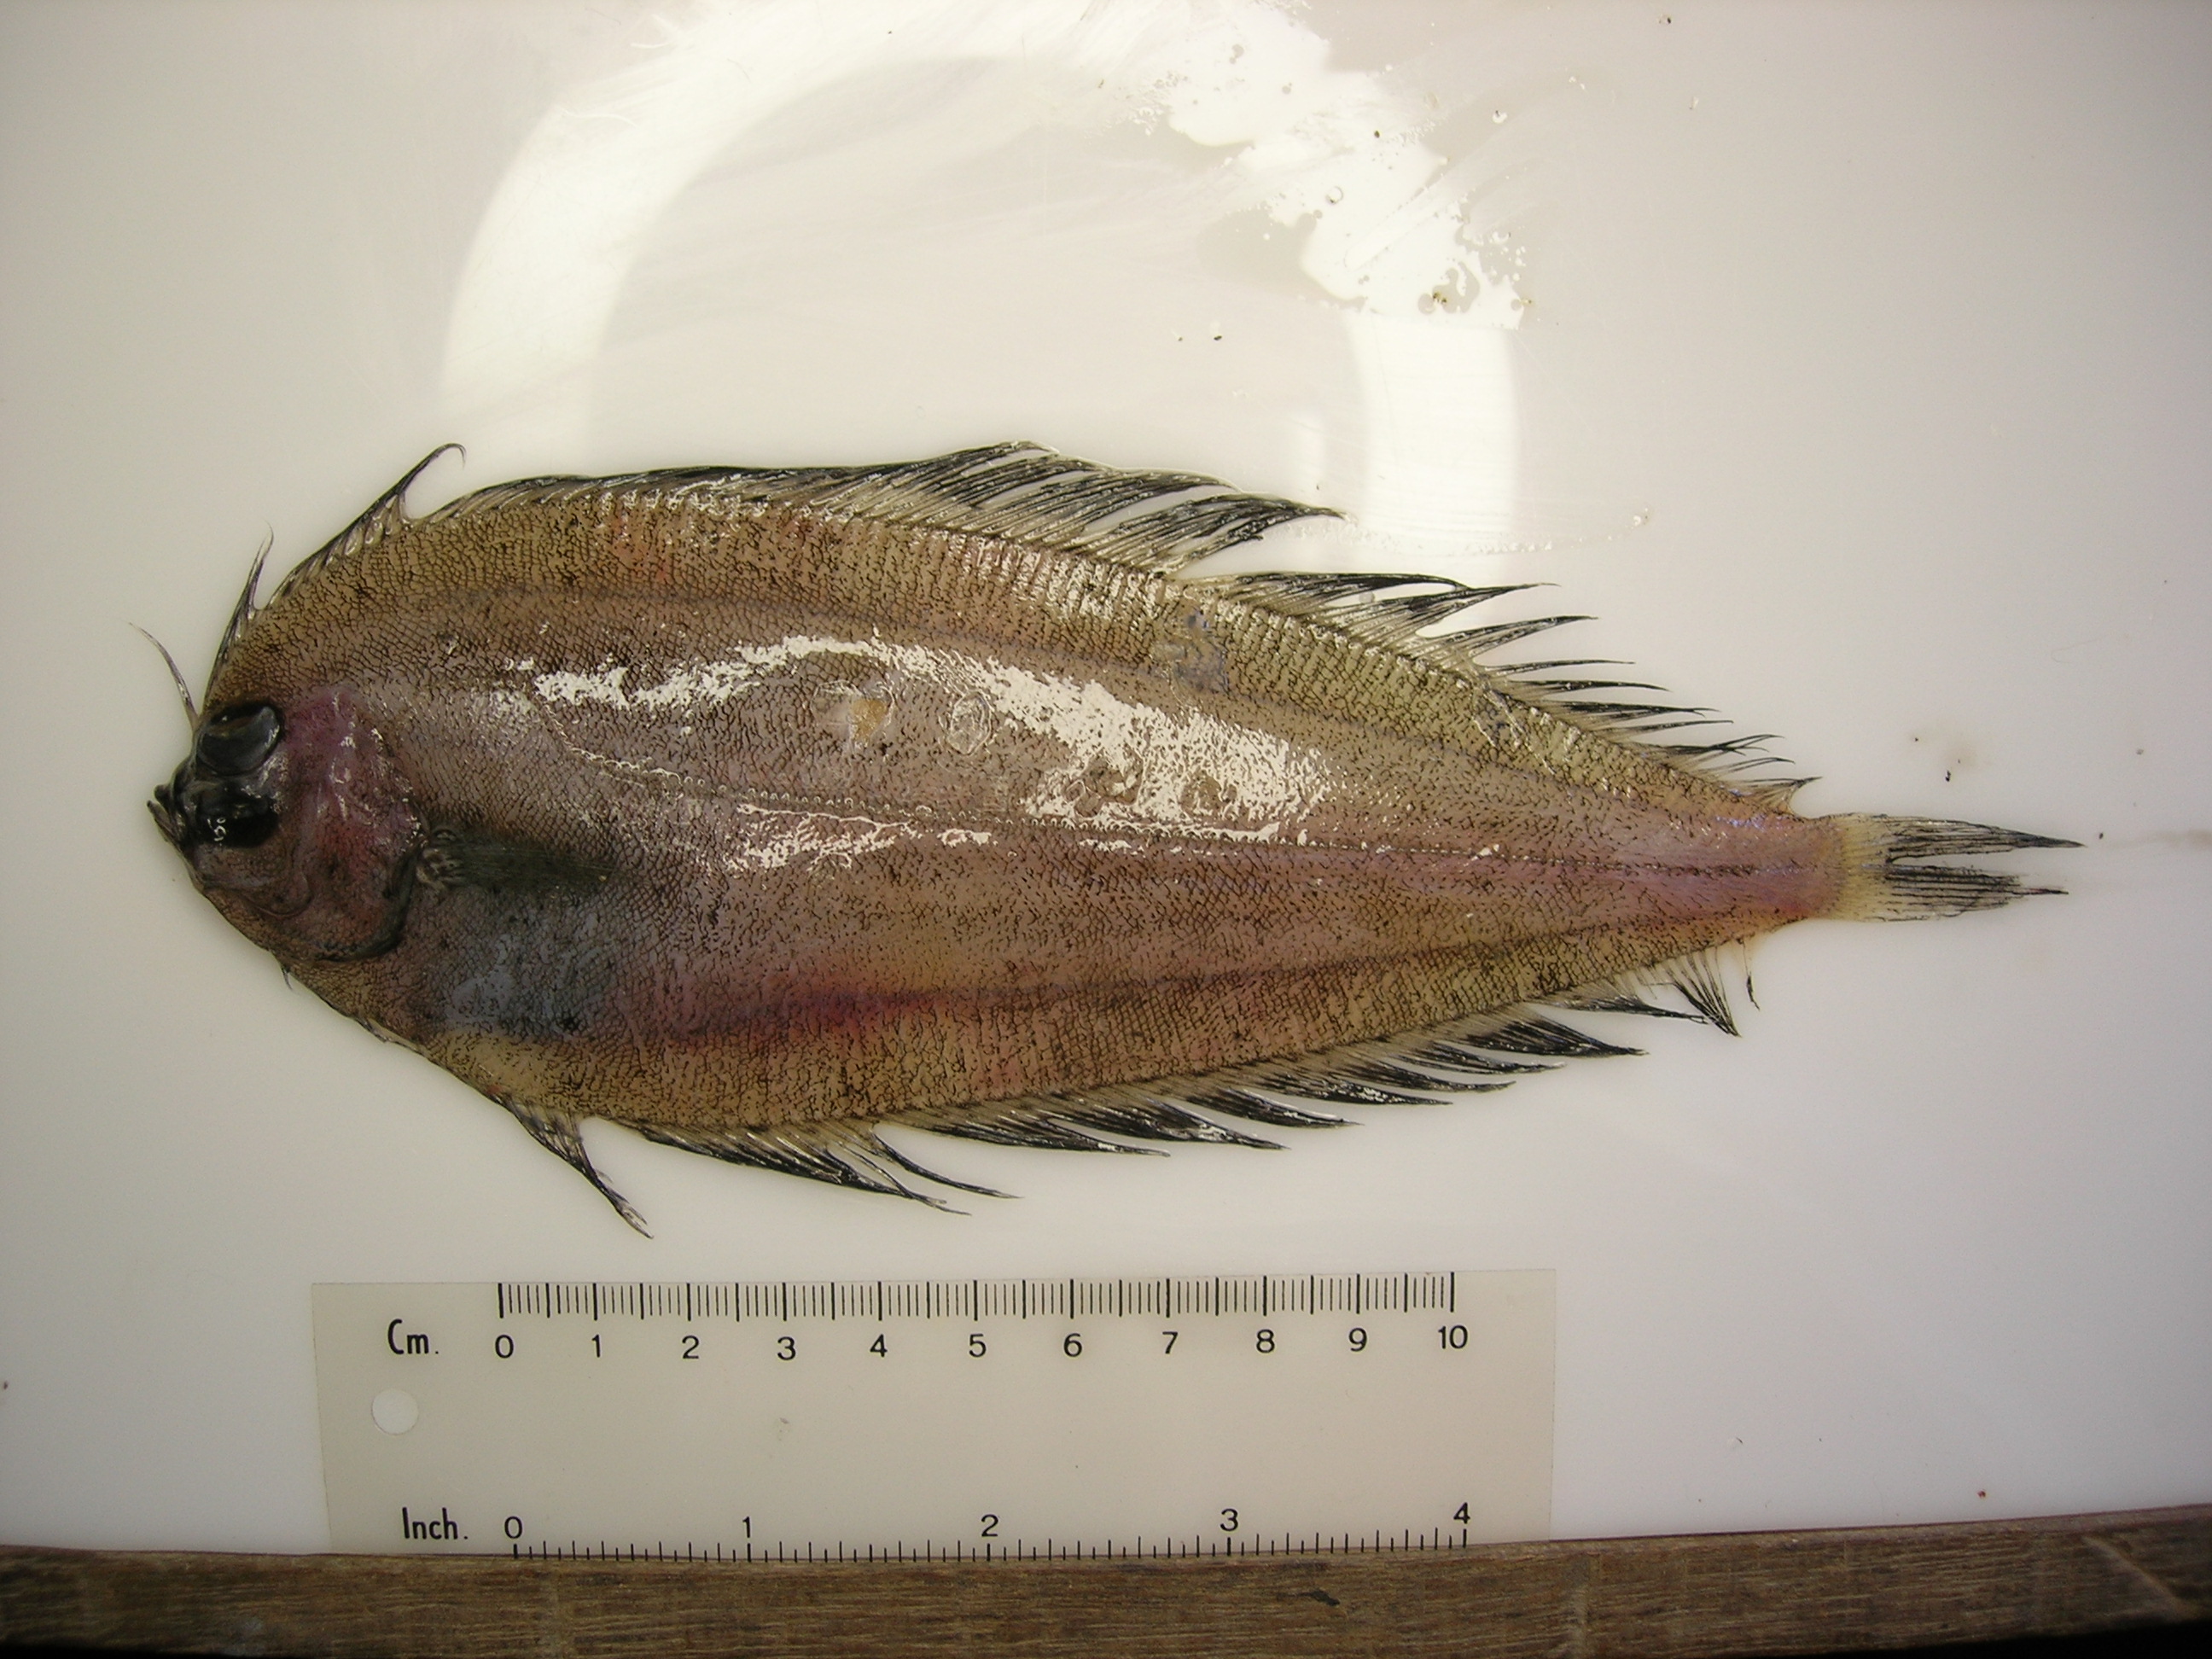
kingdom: Animalia
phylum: Chordata
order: Pleuronectiformes
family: Bothidae
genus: Laeops
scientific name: Laeops nigromaculatus
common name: Blackspotted flounder
